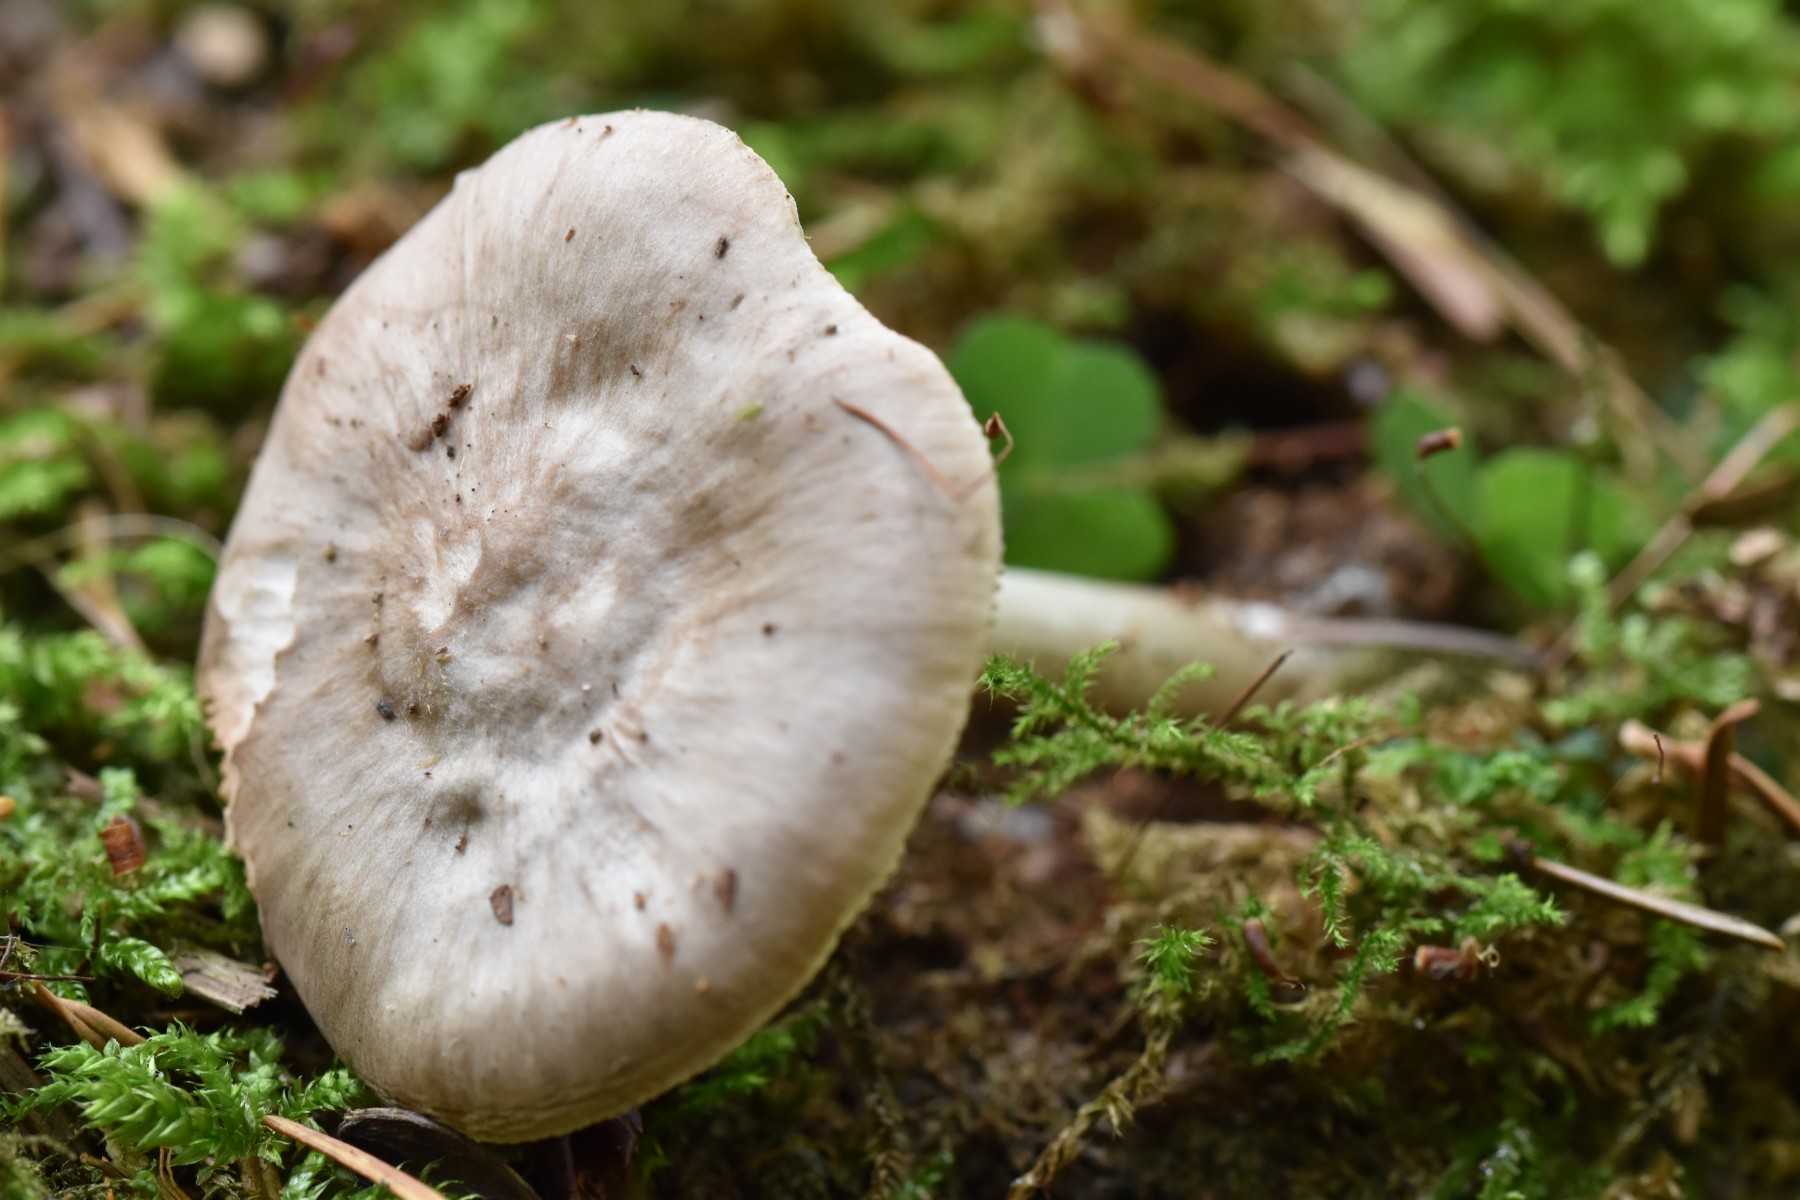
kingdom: Fungi
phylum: Basidiomycota
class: Agaricomycetes
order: Agaricales
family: Pluteaceae
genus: Pluteus
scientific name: Pluteus primus
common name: tidlig skærmhat
